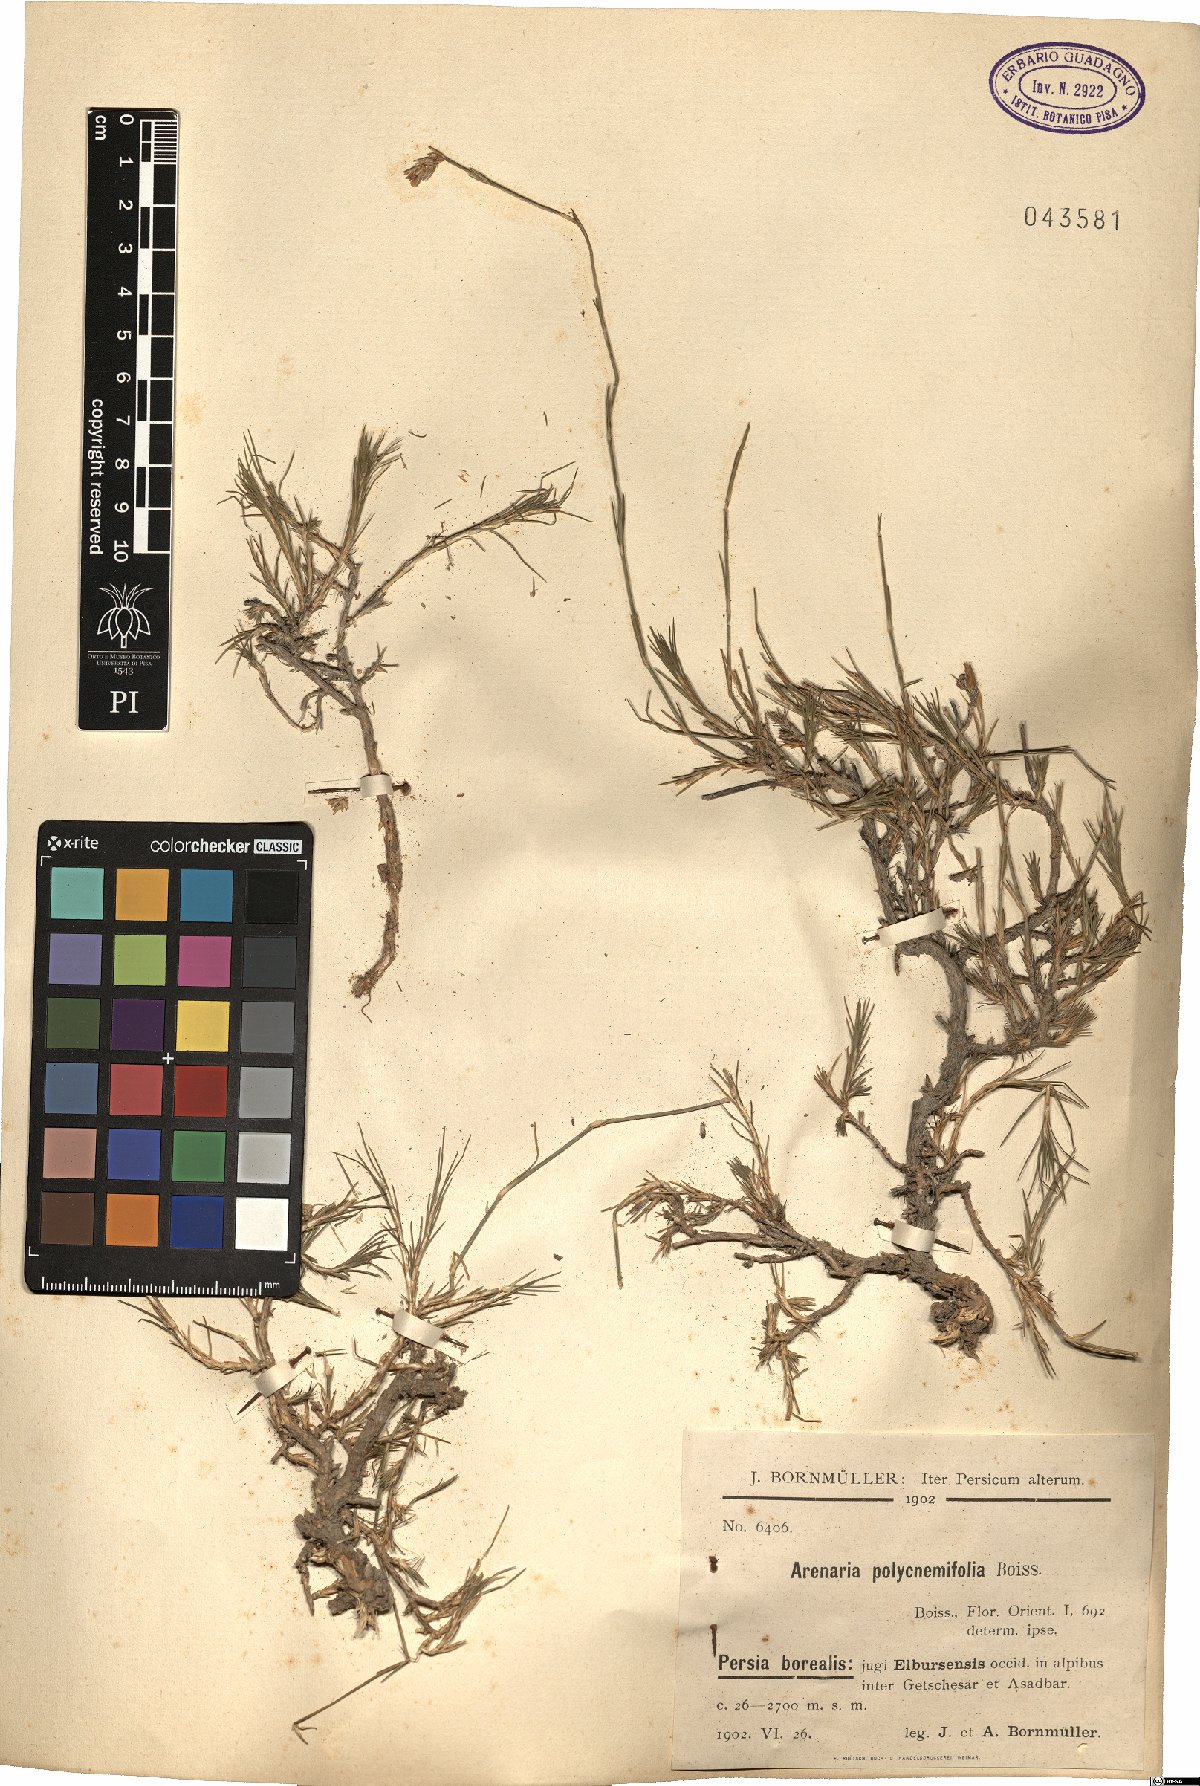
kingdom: Plantae
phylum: Tracheophyta
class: Magnoliopsida
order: Caryophyllales
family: Caryophyllaceae
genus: Eremogone
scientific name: Eremogone polycnemifolia
